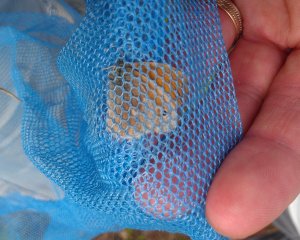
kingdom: Animalia
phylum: Arthropoda
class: Insecta
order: Lepidoptera
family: Nymphalidae
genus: Coenonympha
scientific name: Coenonympha tullia
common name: Large Heath
